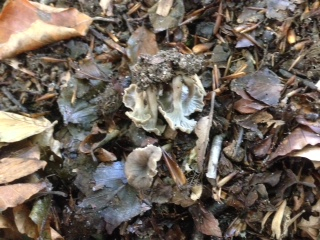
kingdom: Fungi
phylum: Basidiomycota
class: Agaricomycetes
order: Cantharellales
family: Hydnaceae
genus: Craterellus
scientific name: Craterellus undulatus
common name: liden kantarel
